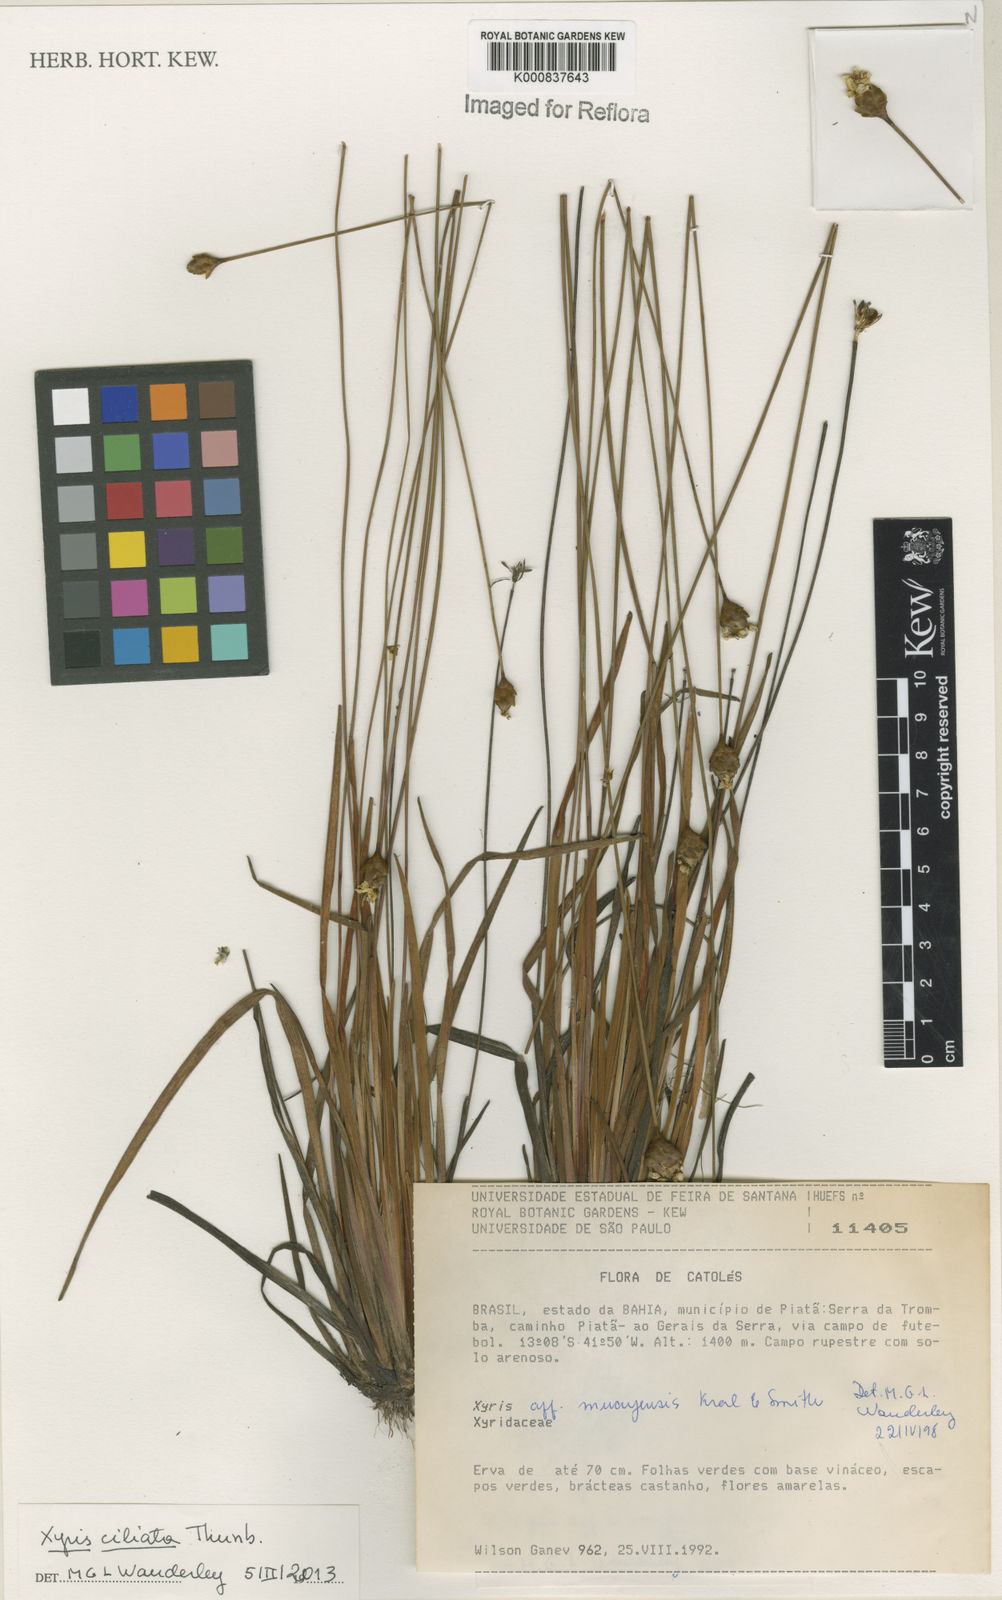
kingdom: Plantae
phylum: Tracheophyta
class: Liliopsida
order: Poales
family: Xyridaceae
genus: Xyris
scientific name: Xyris ciliata
